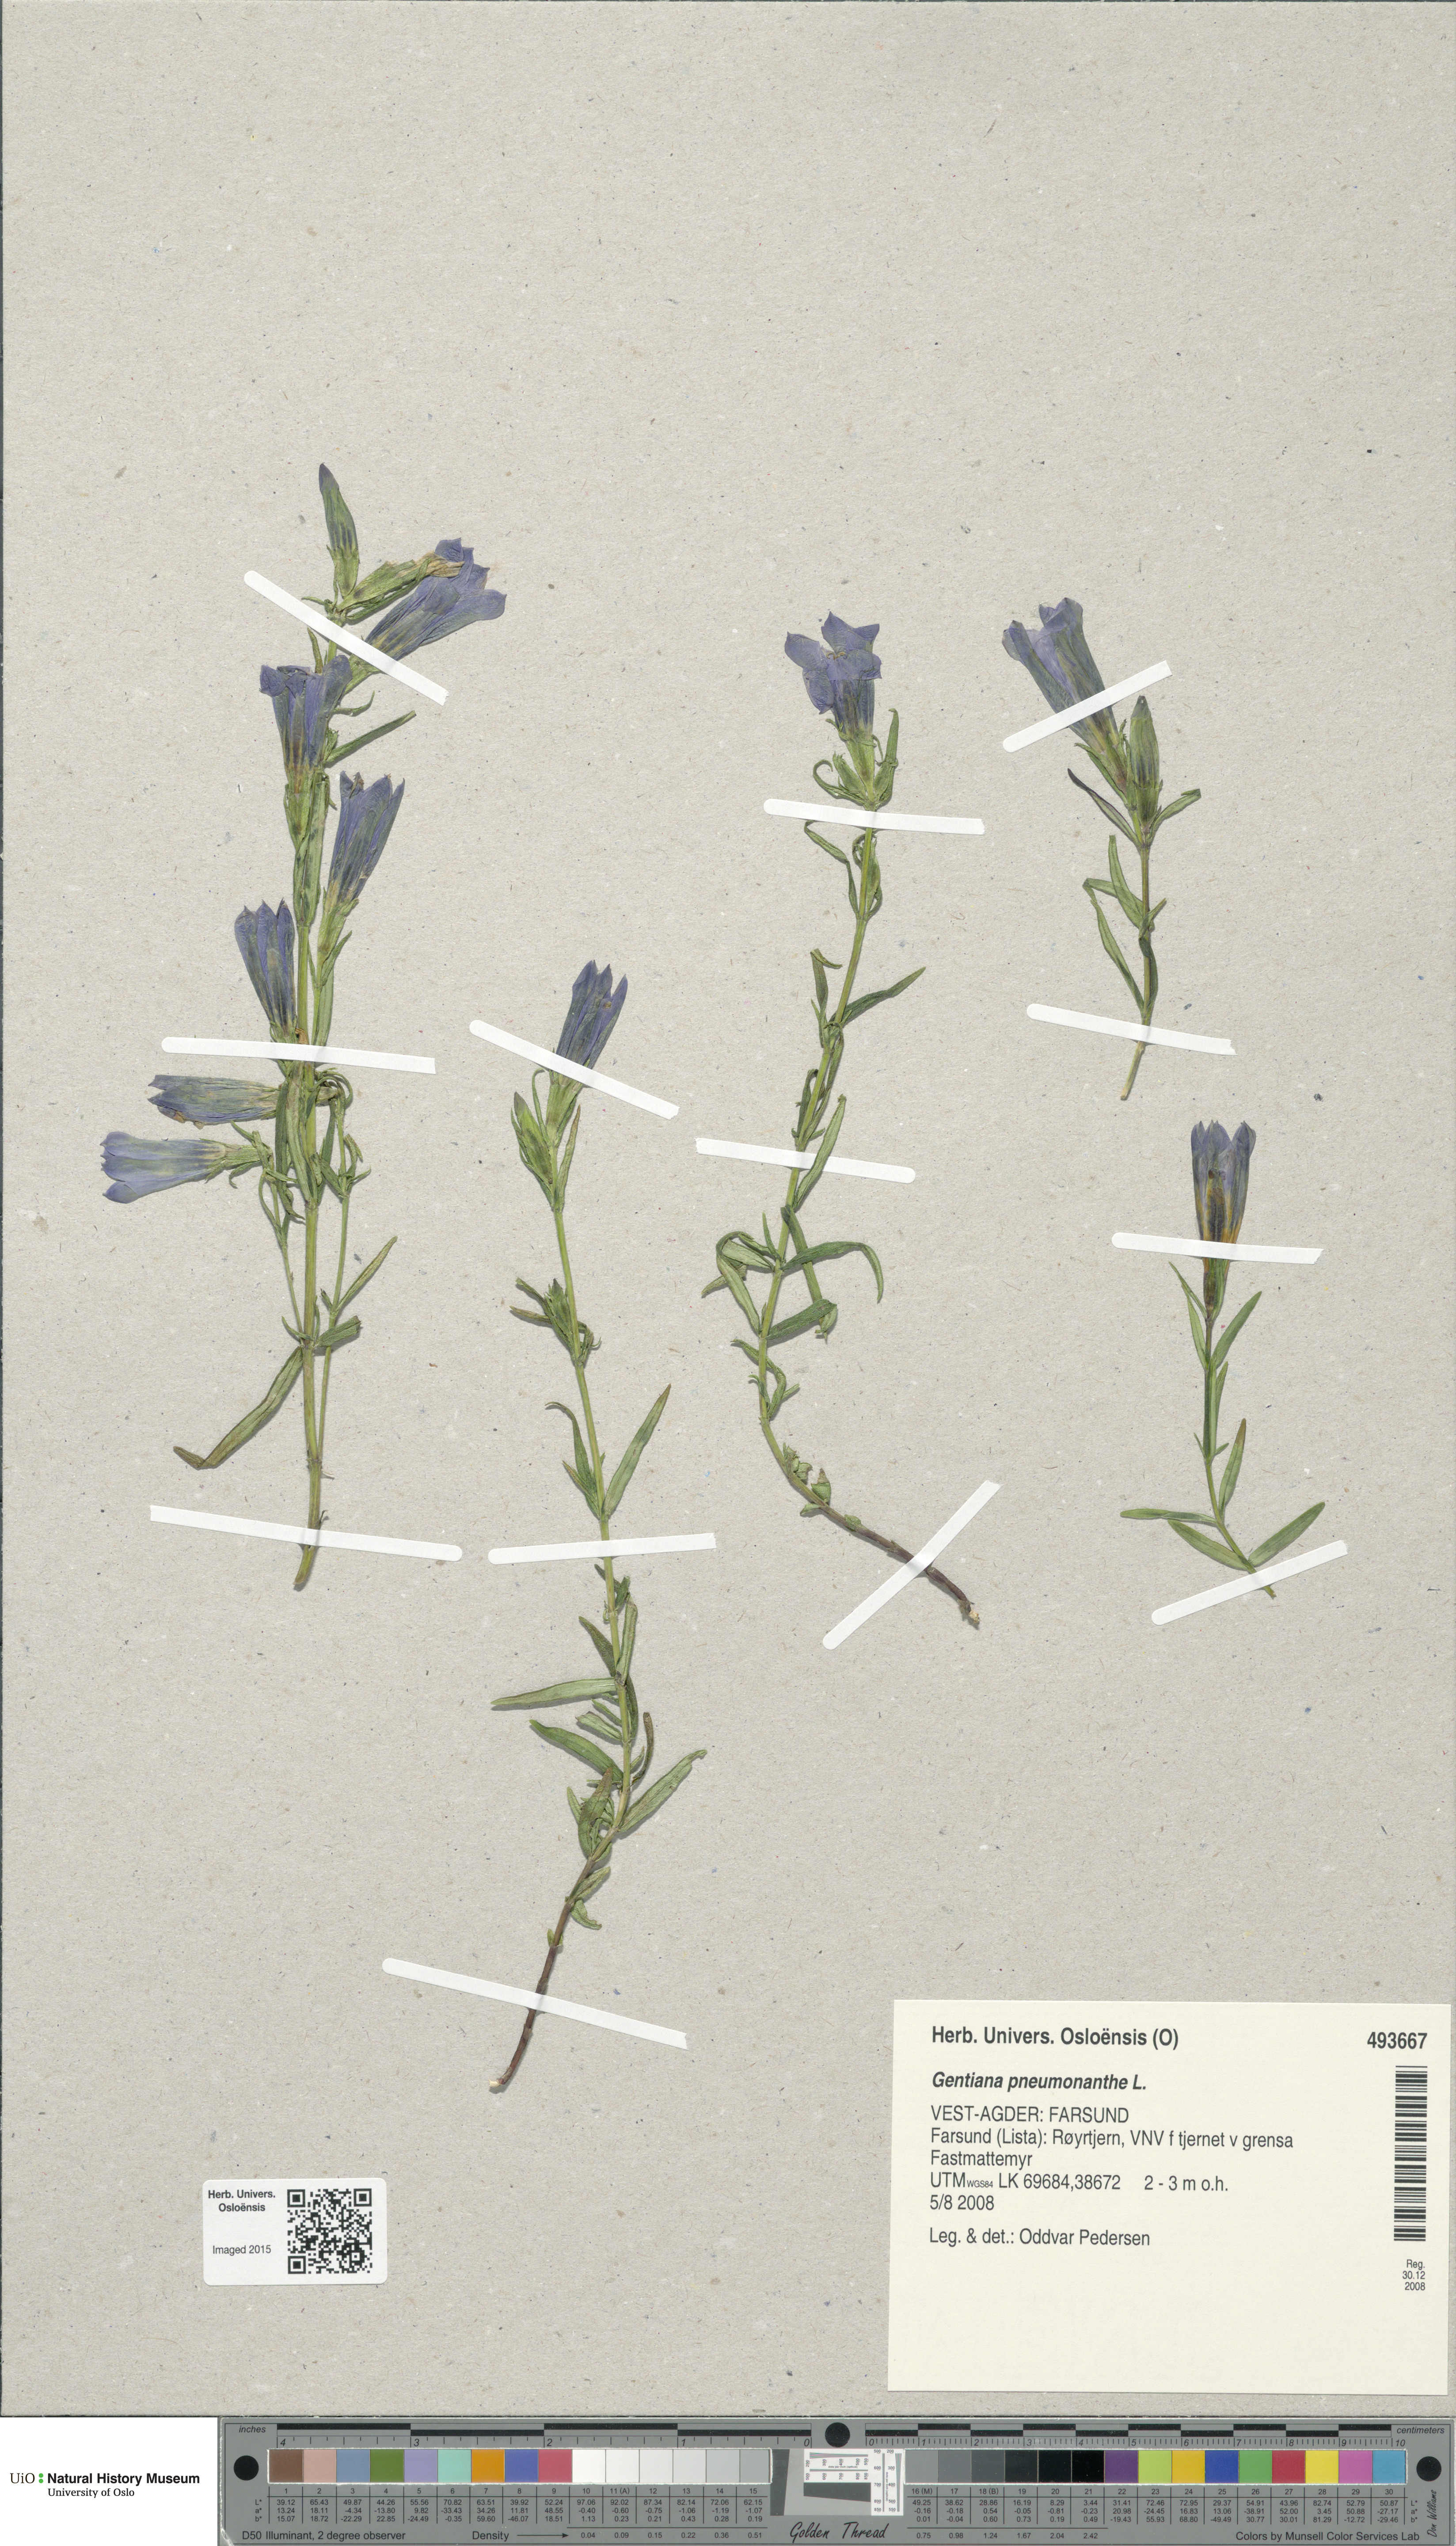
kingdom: Plantae
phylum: Tracheophyta
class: Magnoliopsida
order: Gentianales
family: Gentianaceae
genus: Gentiana
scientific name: Gentiana pneumonanthe
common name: Marsh gentian
